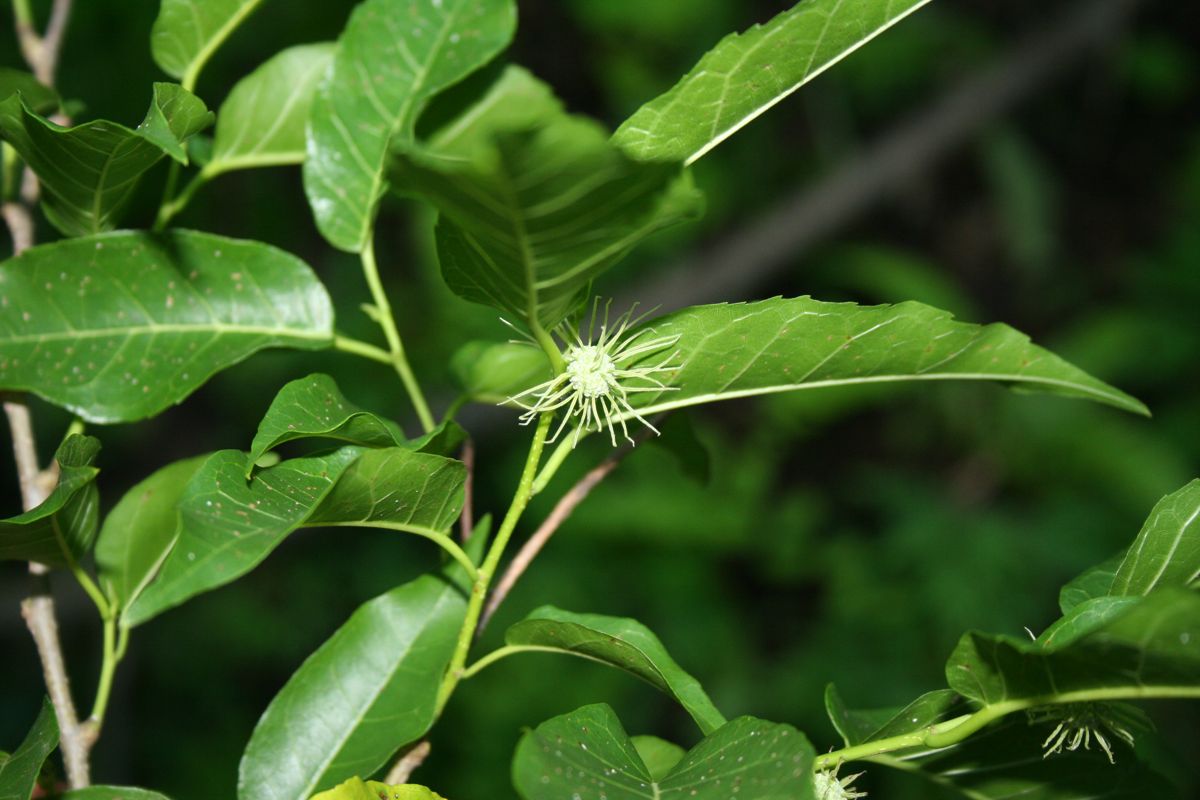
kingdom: Plantae
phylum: Tracheophyta
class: Magnoliopsida
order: Rosales
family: Moraceae
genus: Maclura
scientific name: Maclura tinctoria
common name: Old fustic
